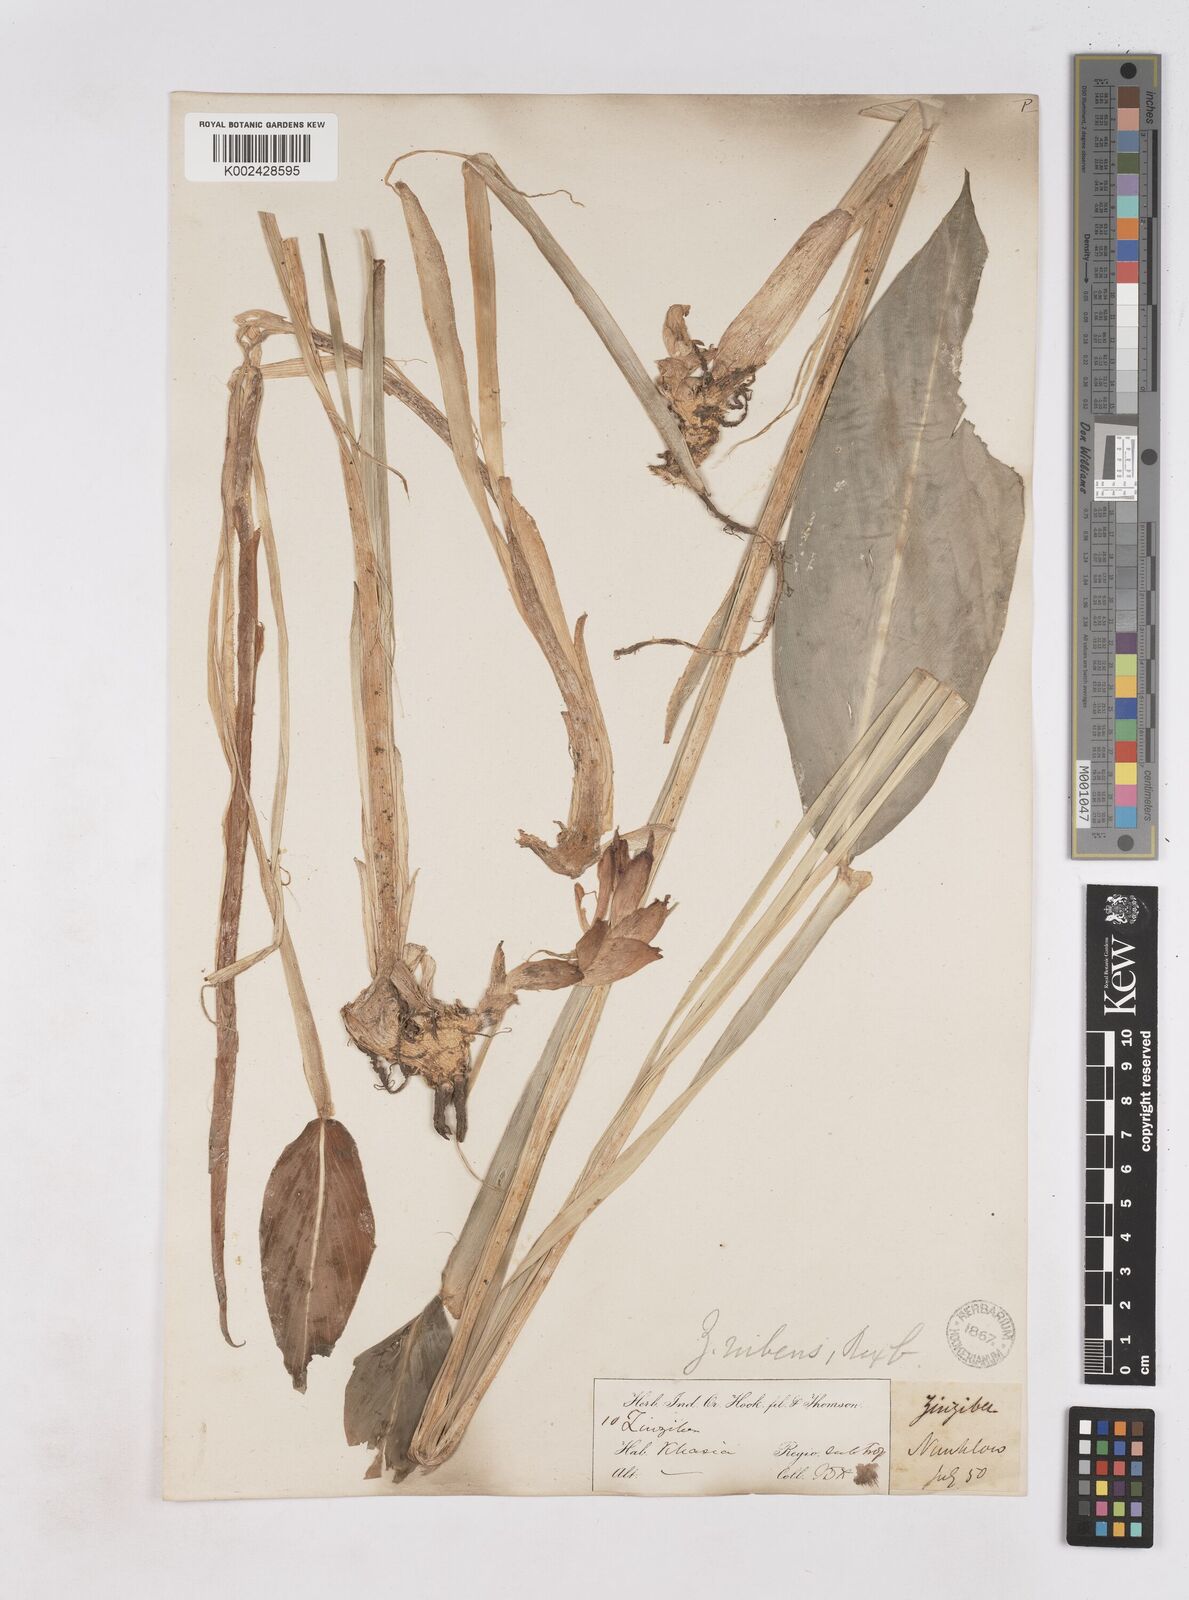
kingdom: Plantae
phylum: Tracheophyta
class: Liliopsida
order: Zingiberales
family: Zingiberaceae
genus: Zingiber
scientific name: Zingiber rubens
